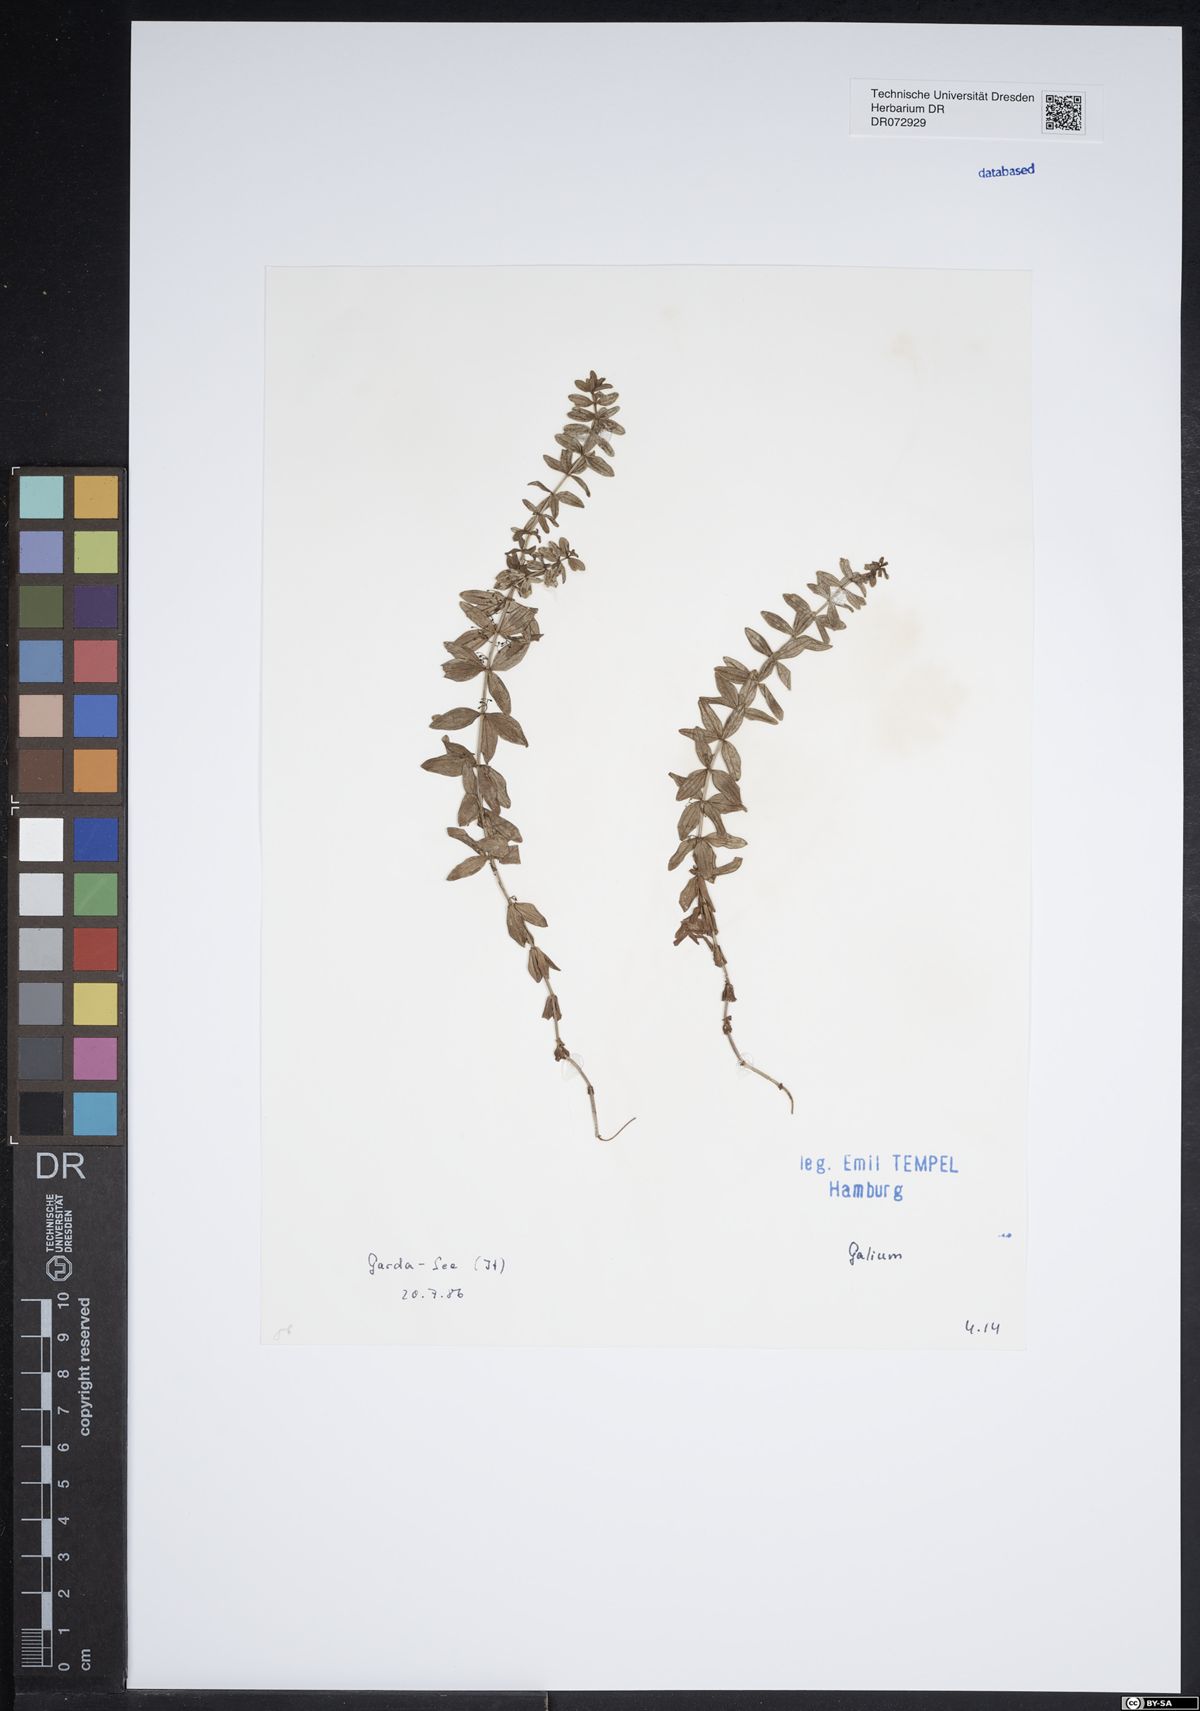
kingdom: Plantae
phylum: Tracheophyta
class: Magnoliopsida
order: Gentianales
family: Rubiaceae
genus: Galium
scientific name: Galium
